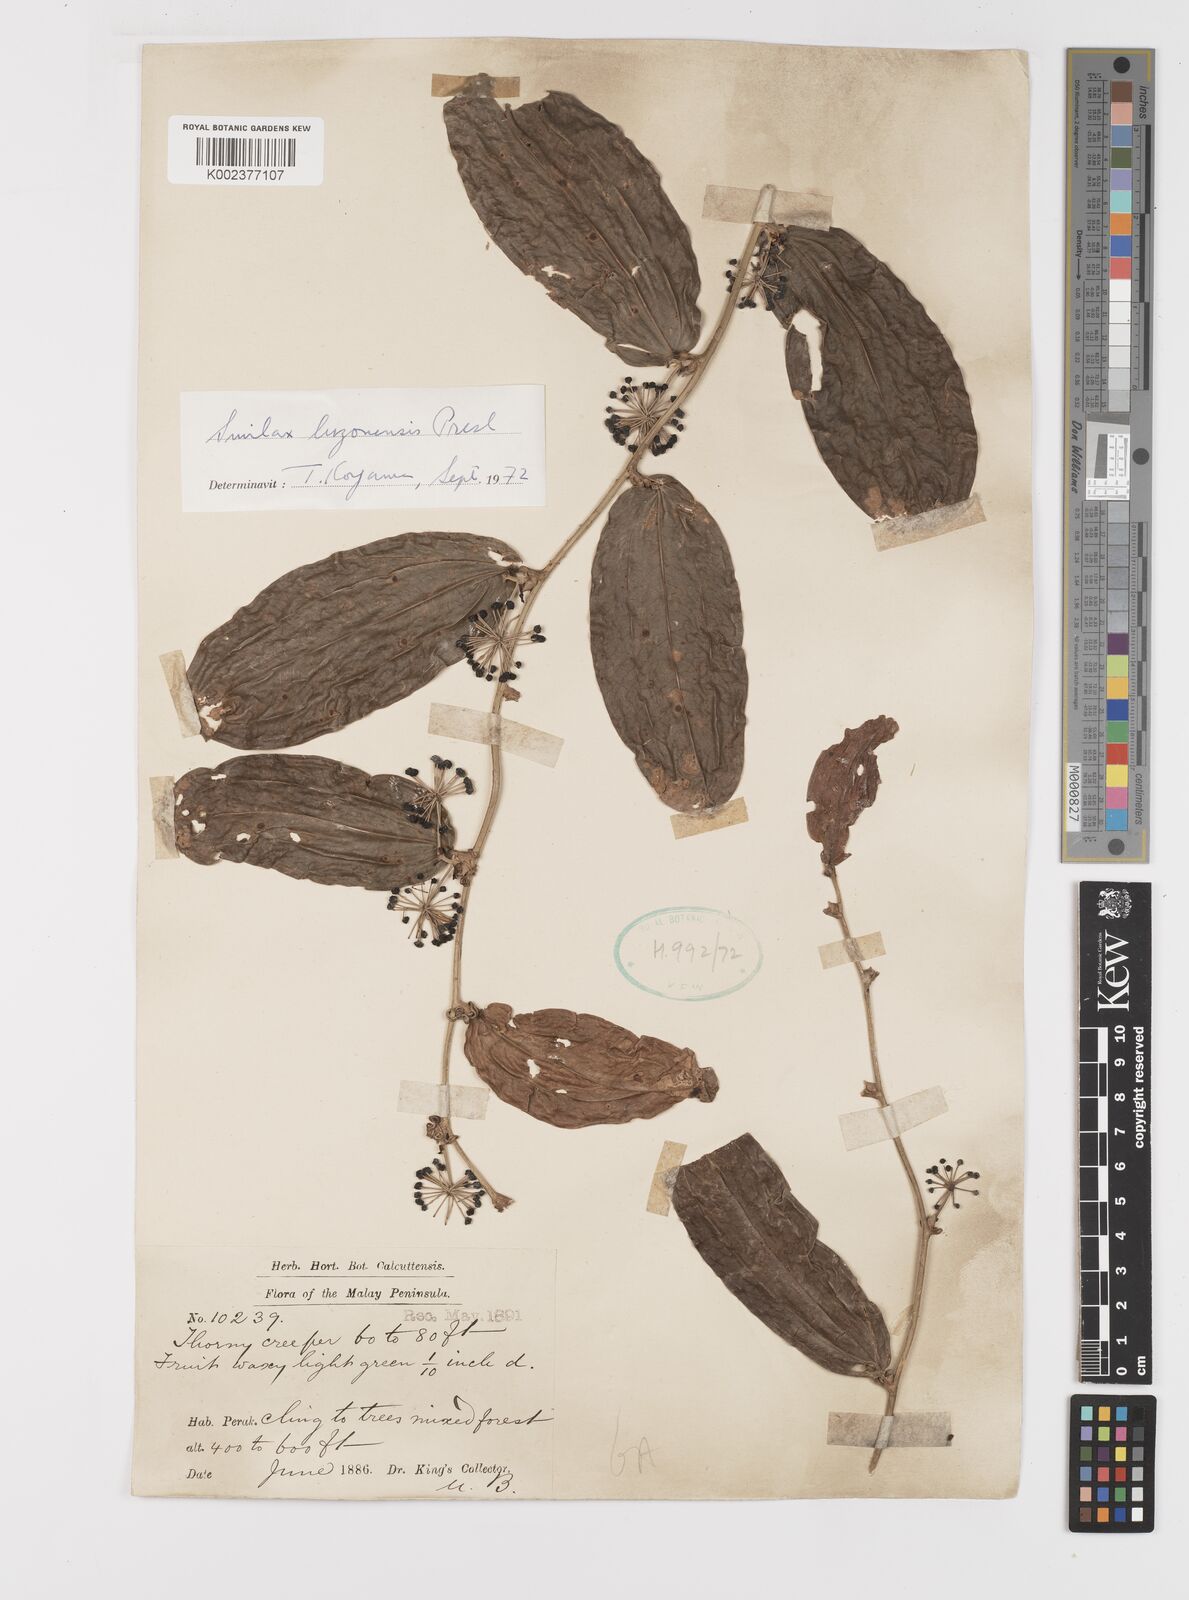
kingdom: Plantae
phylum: Tracheophyta
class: Liliopsida
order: Liliales
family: Smilacaceae
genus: Smilax
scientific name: Smilax luzonensis
